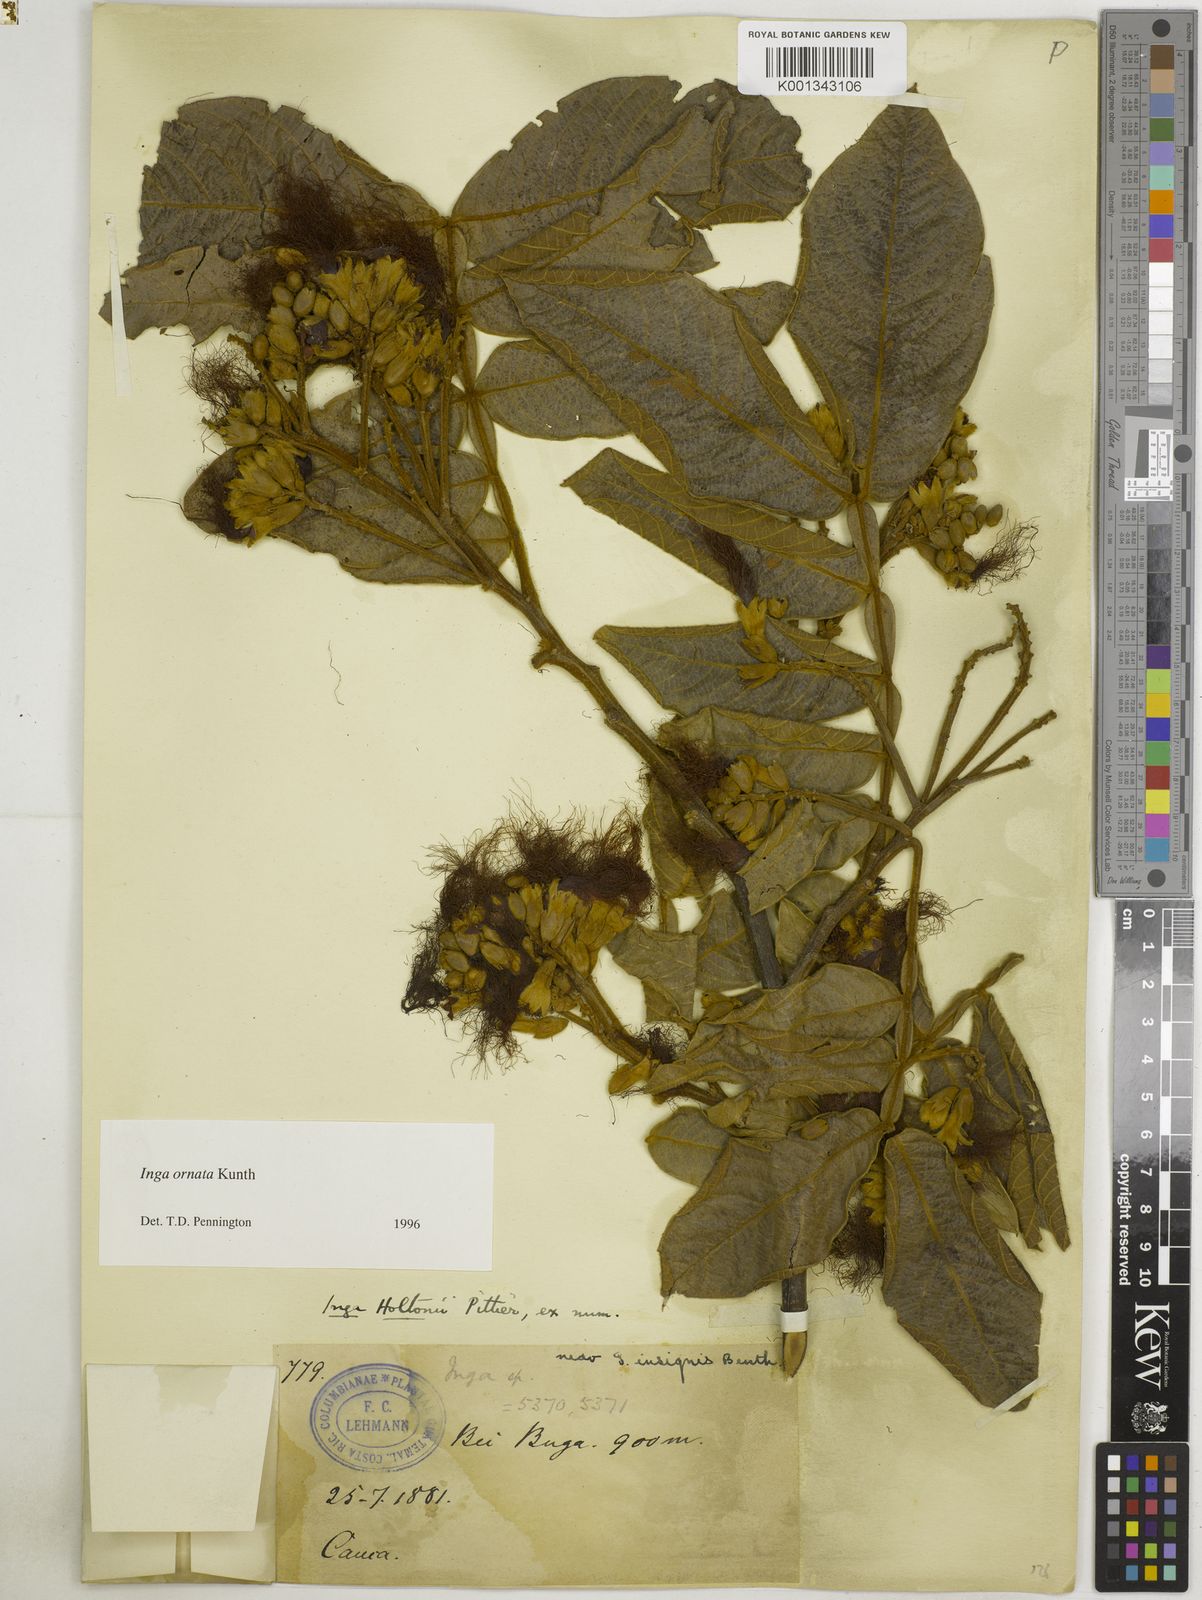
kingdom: Plantae
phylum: Tracheophyta
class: Magnoliopsida
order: Fabales
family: Fabaceae
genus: Inga
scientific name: Inga ornata
